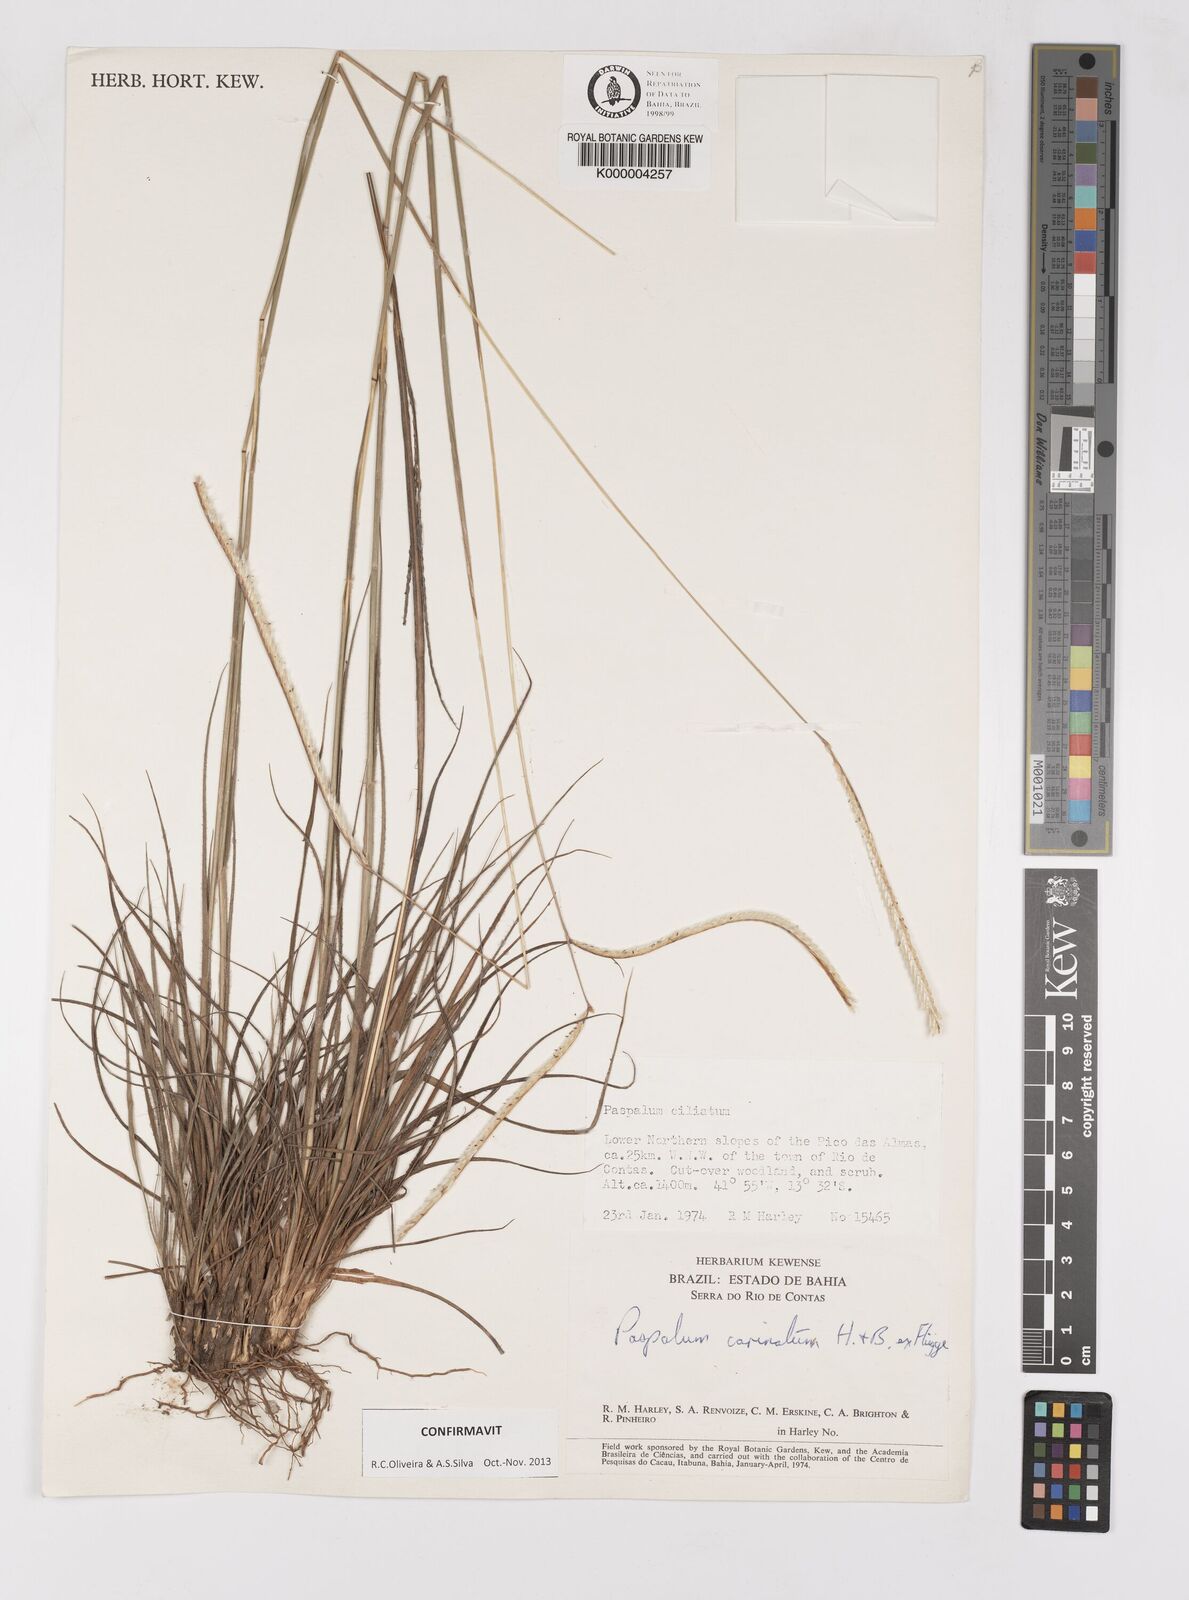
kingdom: Plantae
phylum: Tracheophyta
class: Liliopsida
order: Poales
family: Poaceae
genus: Paspalum
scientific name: Paspalum carinatum
